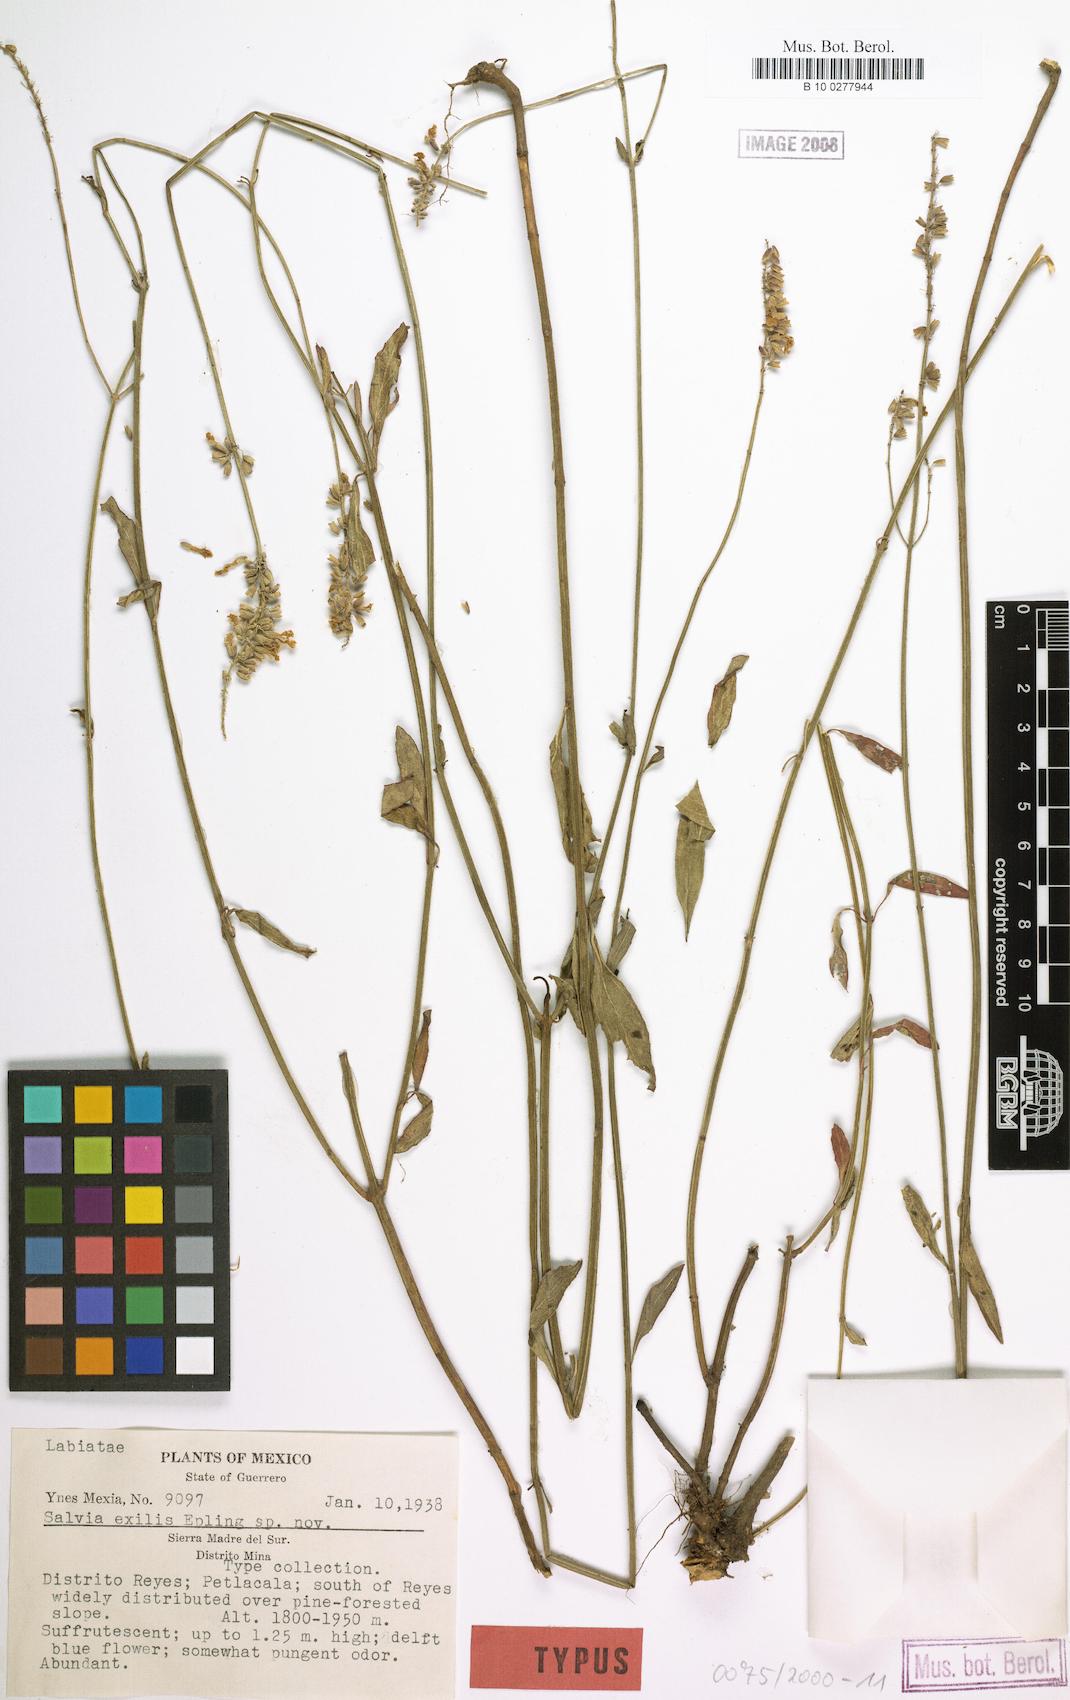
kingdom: Plantae
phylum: Tracheophyta
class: Magnoliopsida
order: Lamiales
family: Lamiaceae
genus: Salvia
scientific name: Salvia exilis
